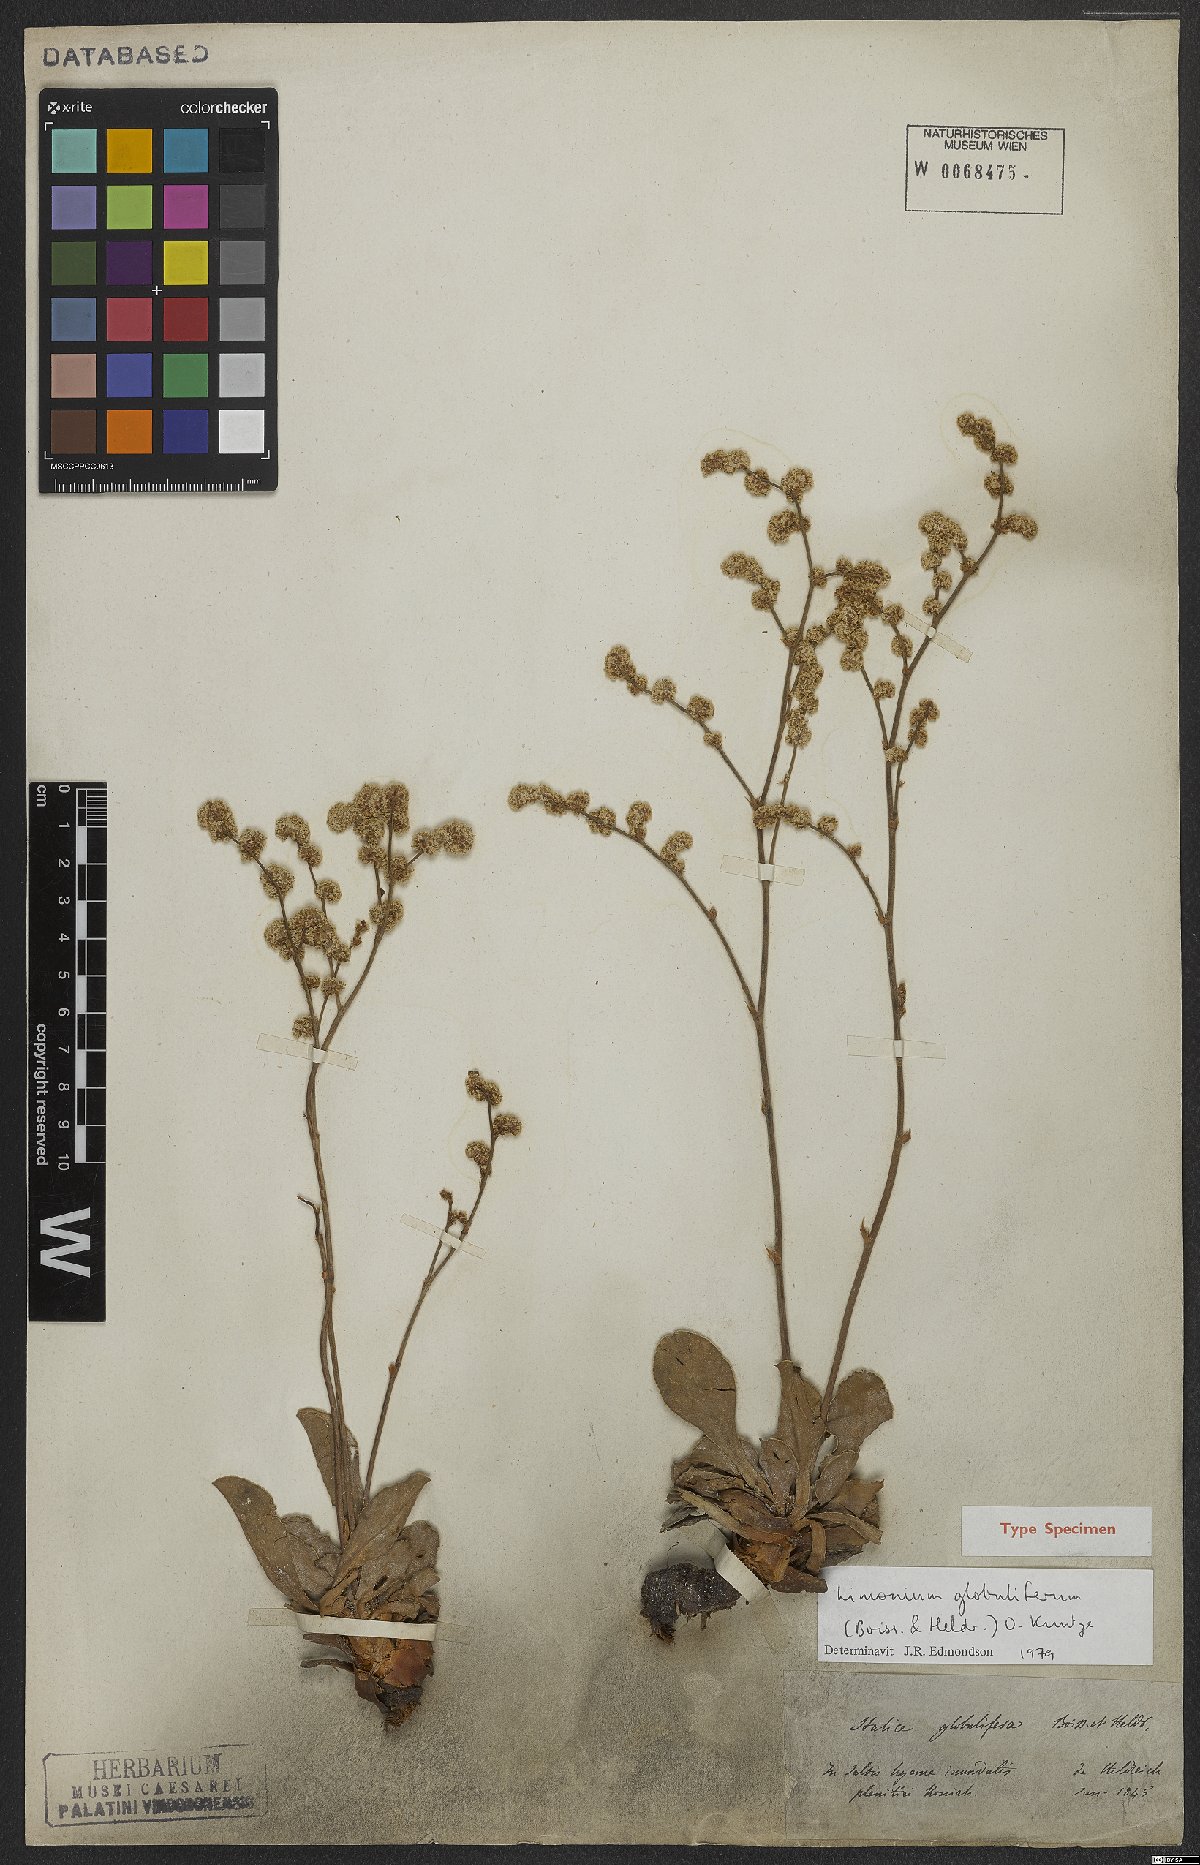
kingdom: Plantae
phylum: Tracheophyta
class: Magnoliopsida
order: Caryophyllales
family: Plumbaginaceae
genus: Limonium
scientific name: Limonium globuliferum
